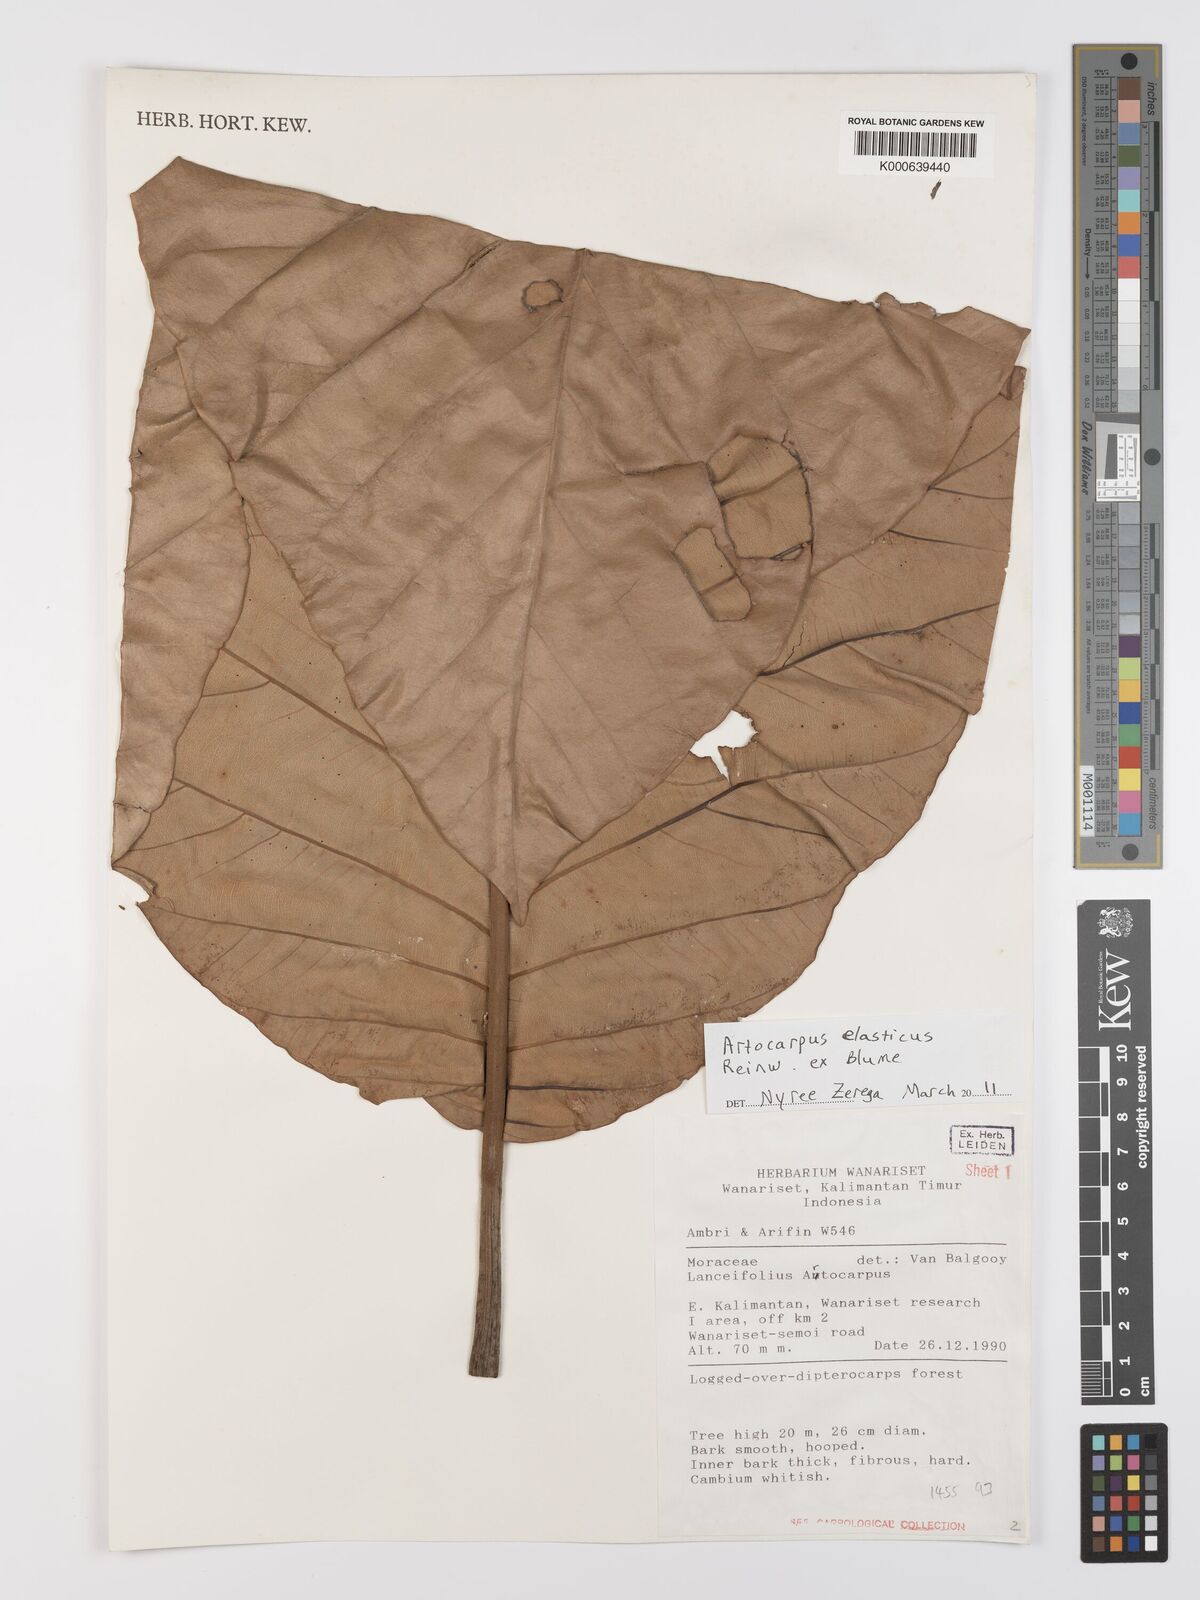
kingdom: Plantae
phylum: Tracheophyta
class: Magnoliopsida
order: Rosales
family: Moraceae
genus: Artocarpus
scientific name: Artocarpus elasticus
